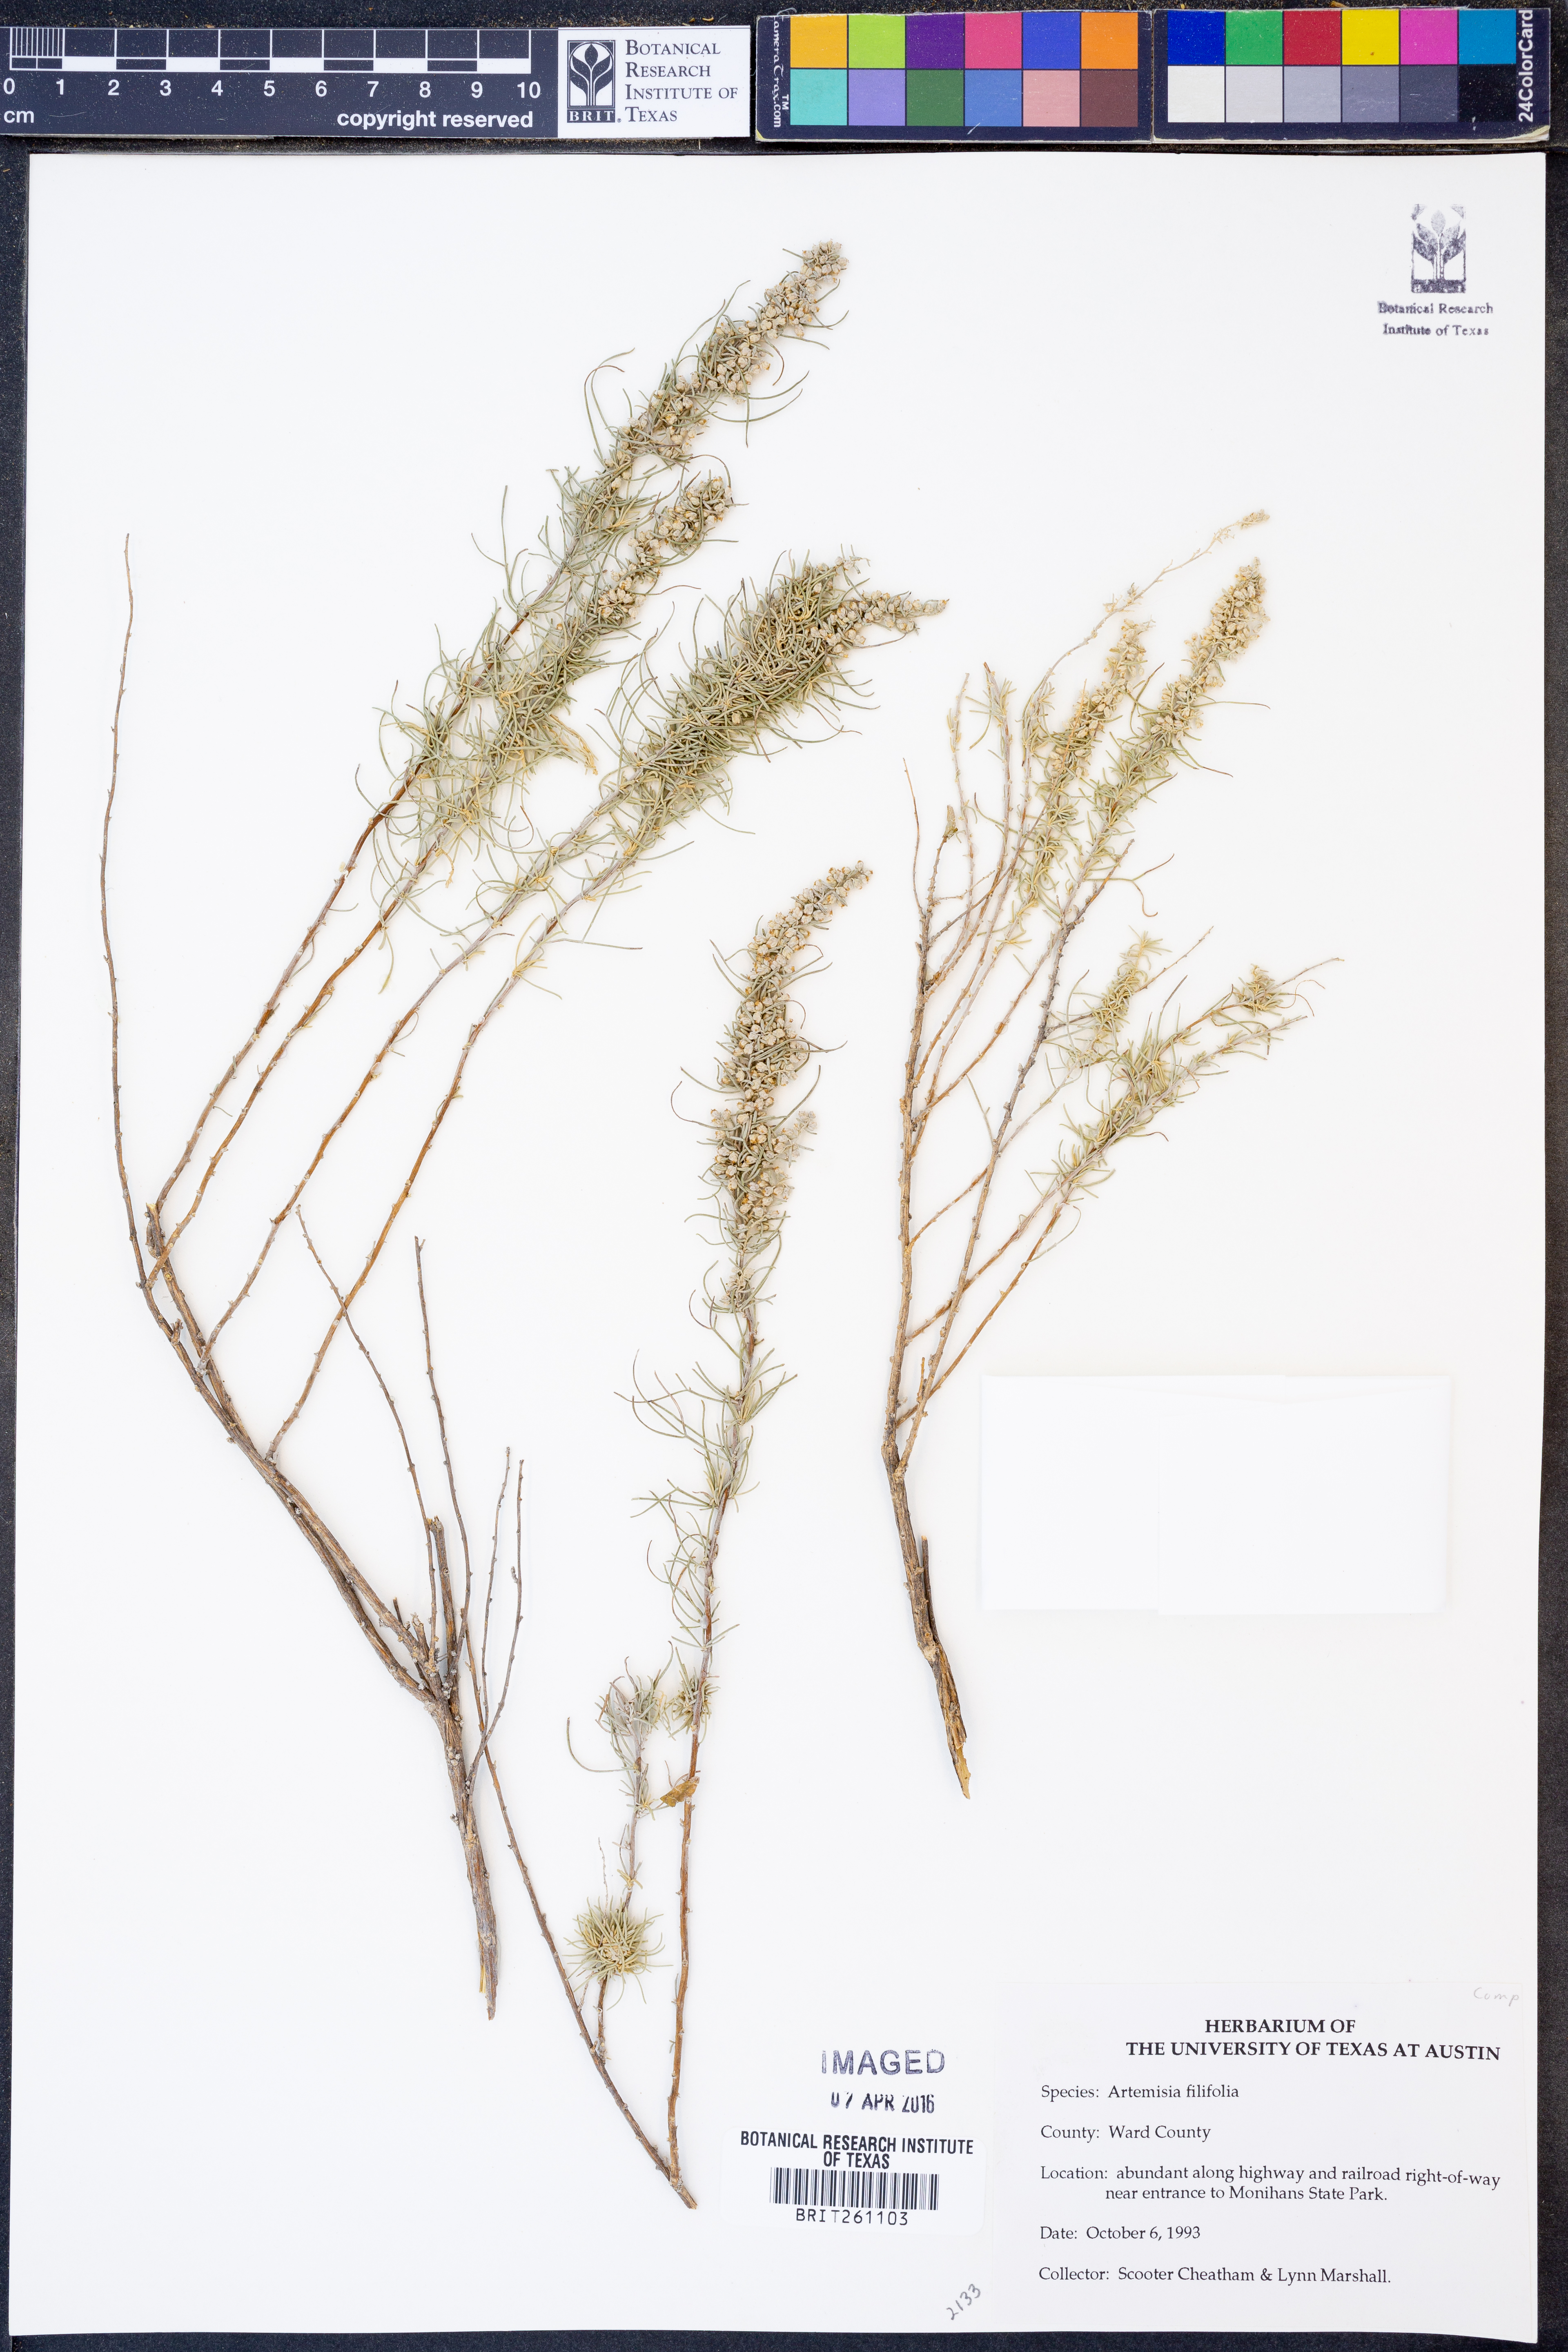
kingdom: Plantae
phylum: Tracheophyta
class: Magnoliopsida
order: Asterales
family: Asteraceae
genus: Artemisia
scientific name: Artemisia filifolia
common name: Sand-sage
